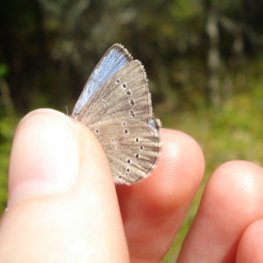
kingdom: Animalia
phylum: Arthropoda
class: Insecta
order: Lepidoptera
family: Lycaenidae
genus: Glaucopsyche
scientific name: Glaucopsyche lygdamus
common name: Silvery Blue
